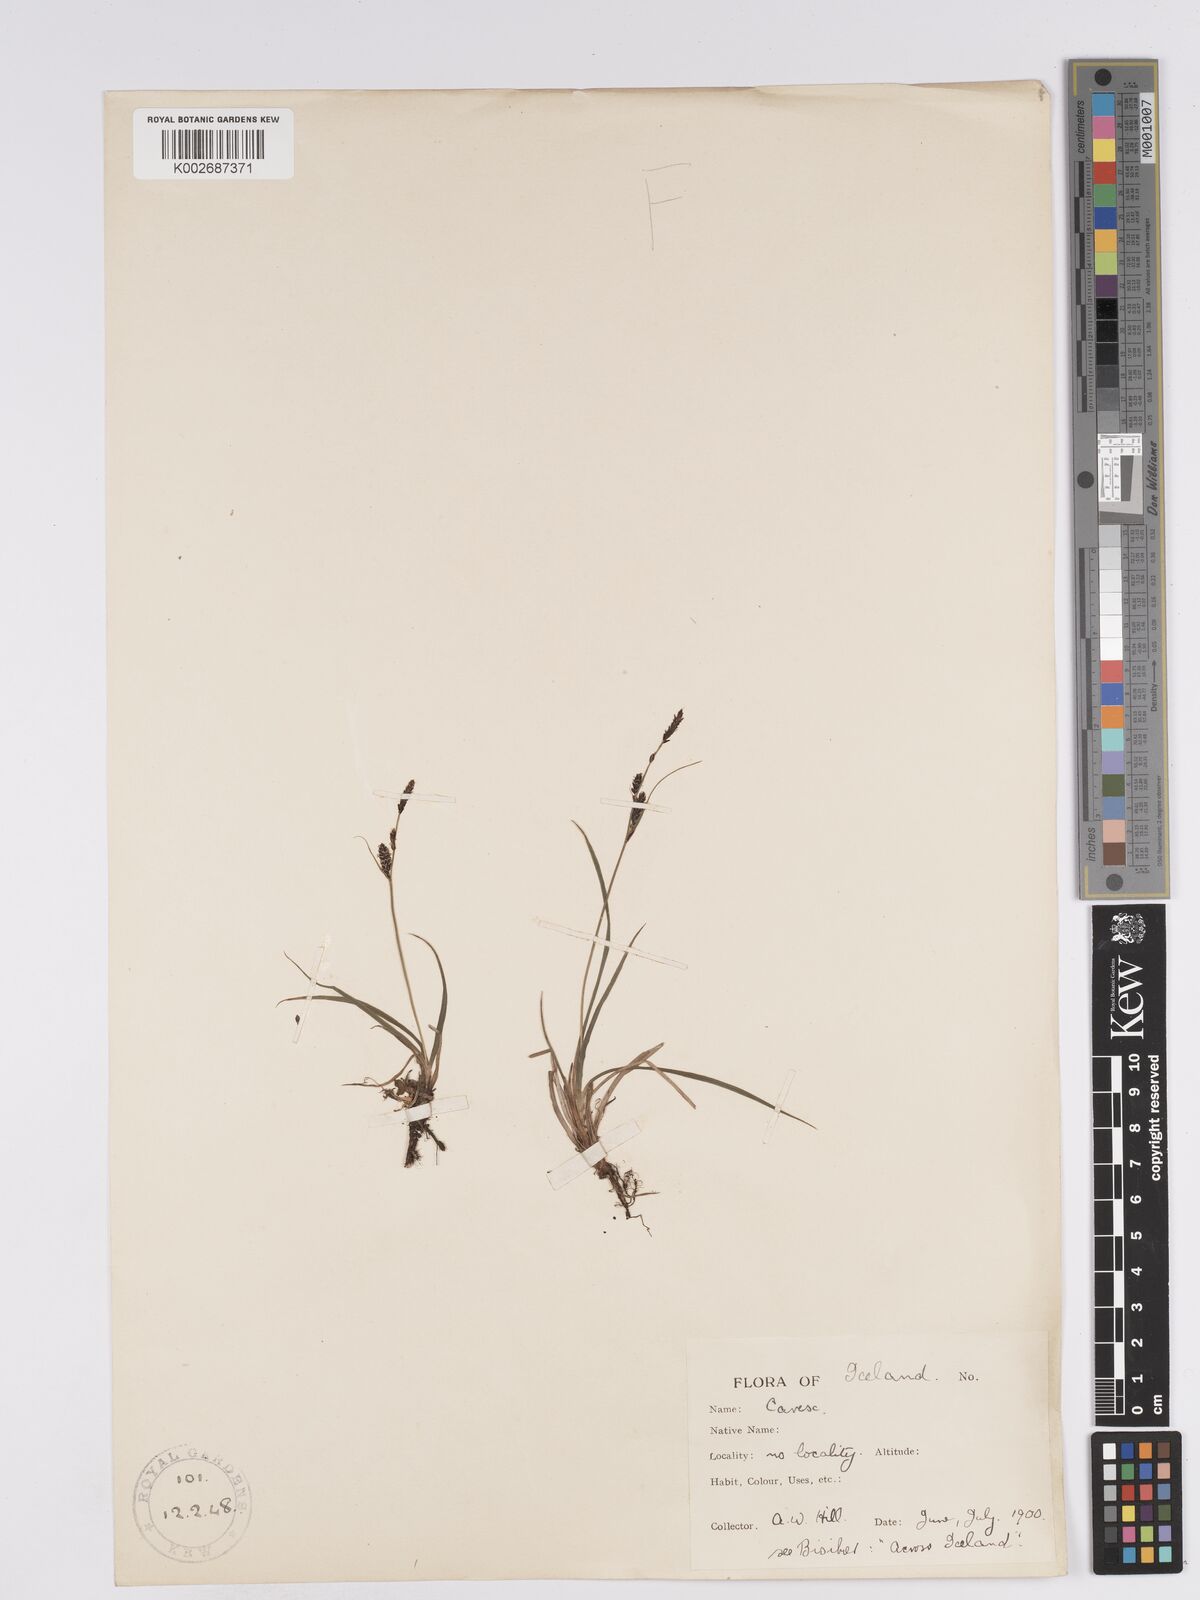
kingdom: Plantae
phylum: Tracheophyta
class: Liliopsida
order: Poales
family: Cyperaceae
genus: Carex
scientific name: Carex nigra
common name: Common sedge
